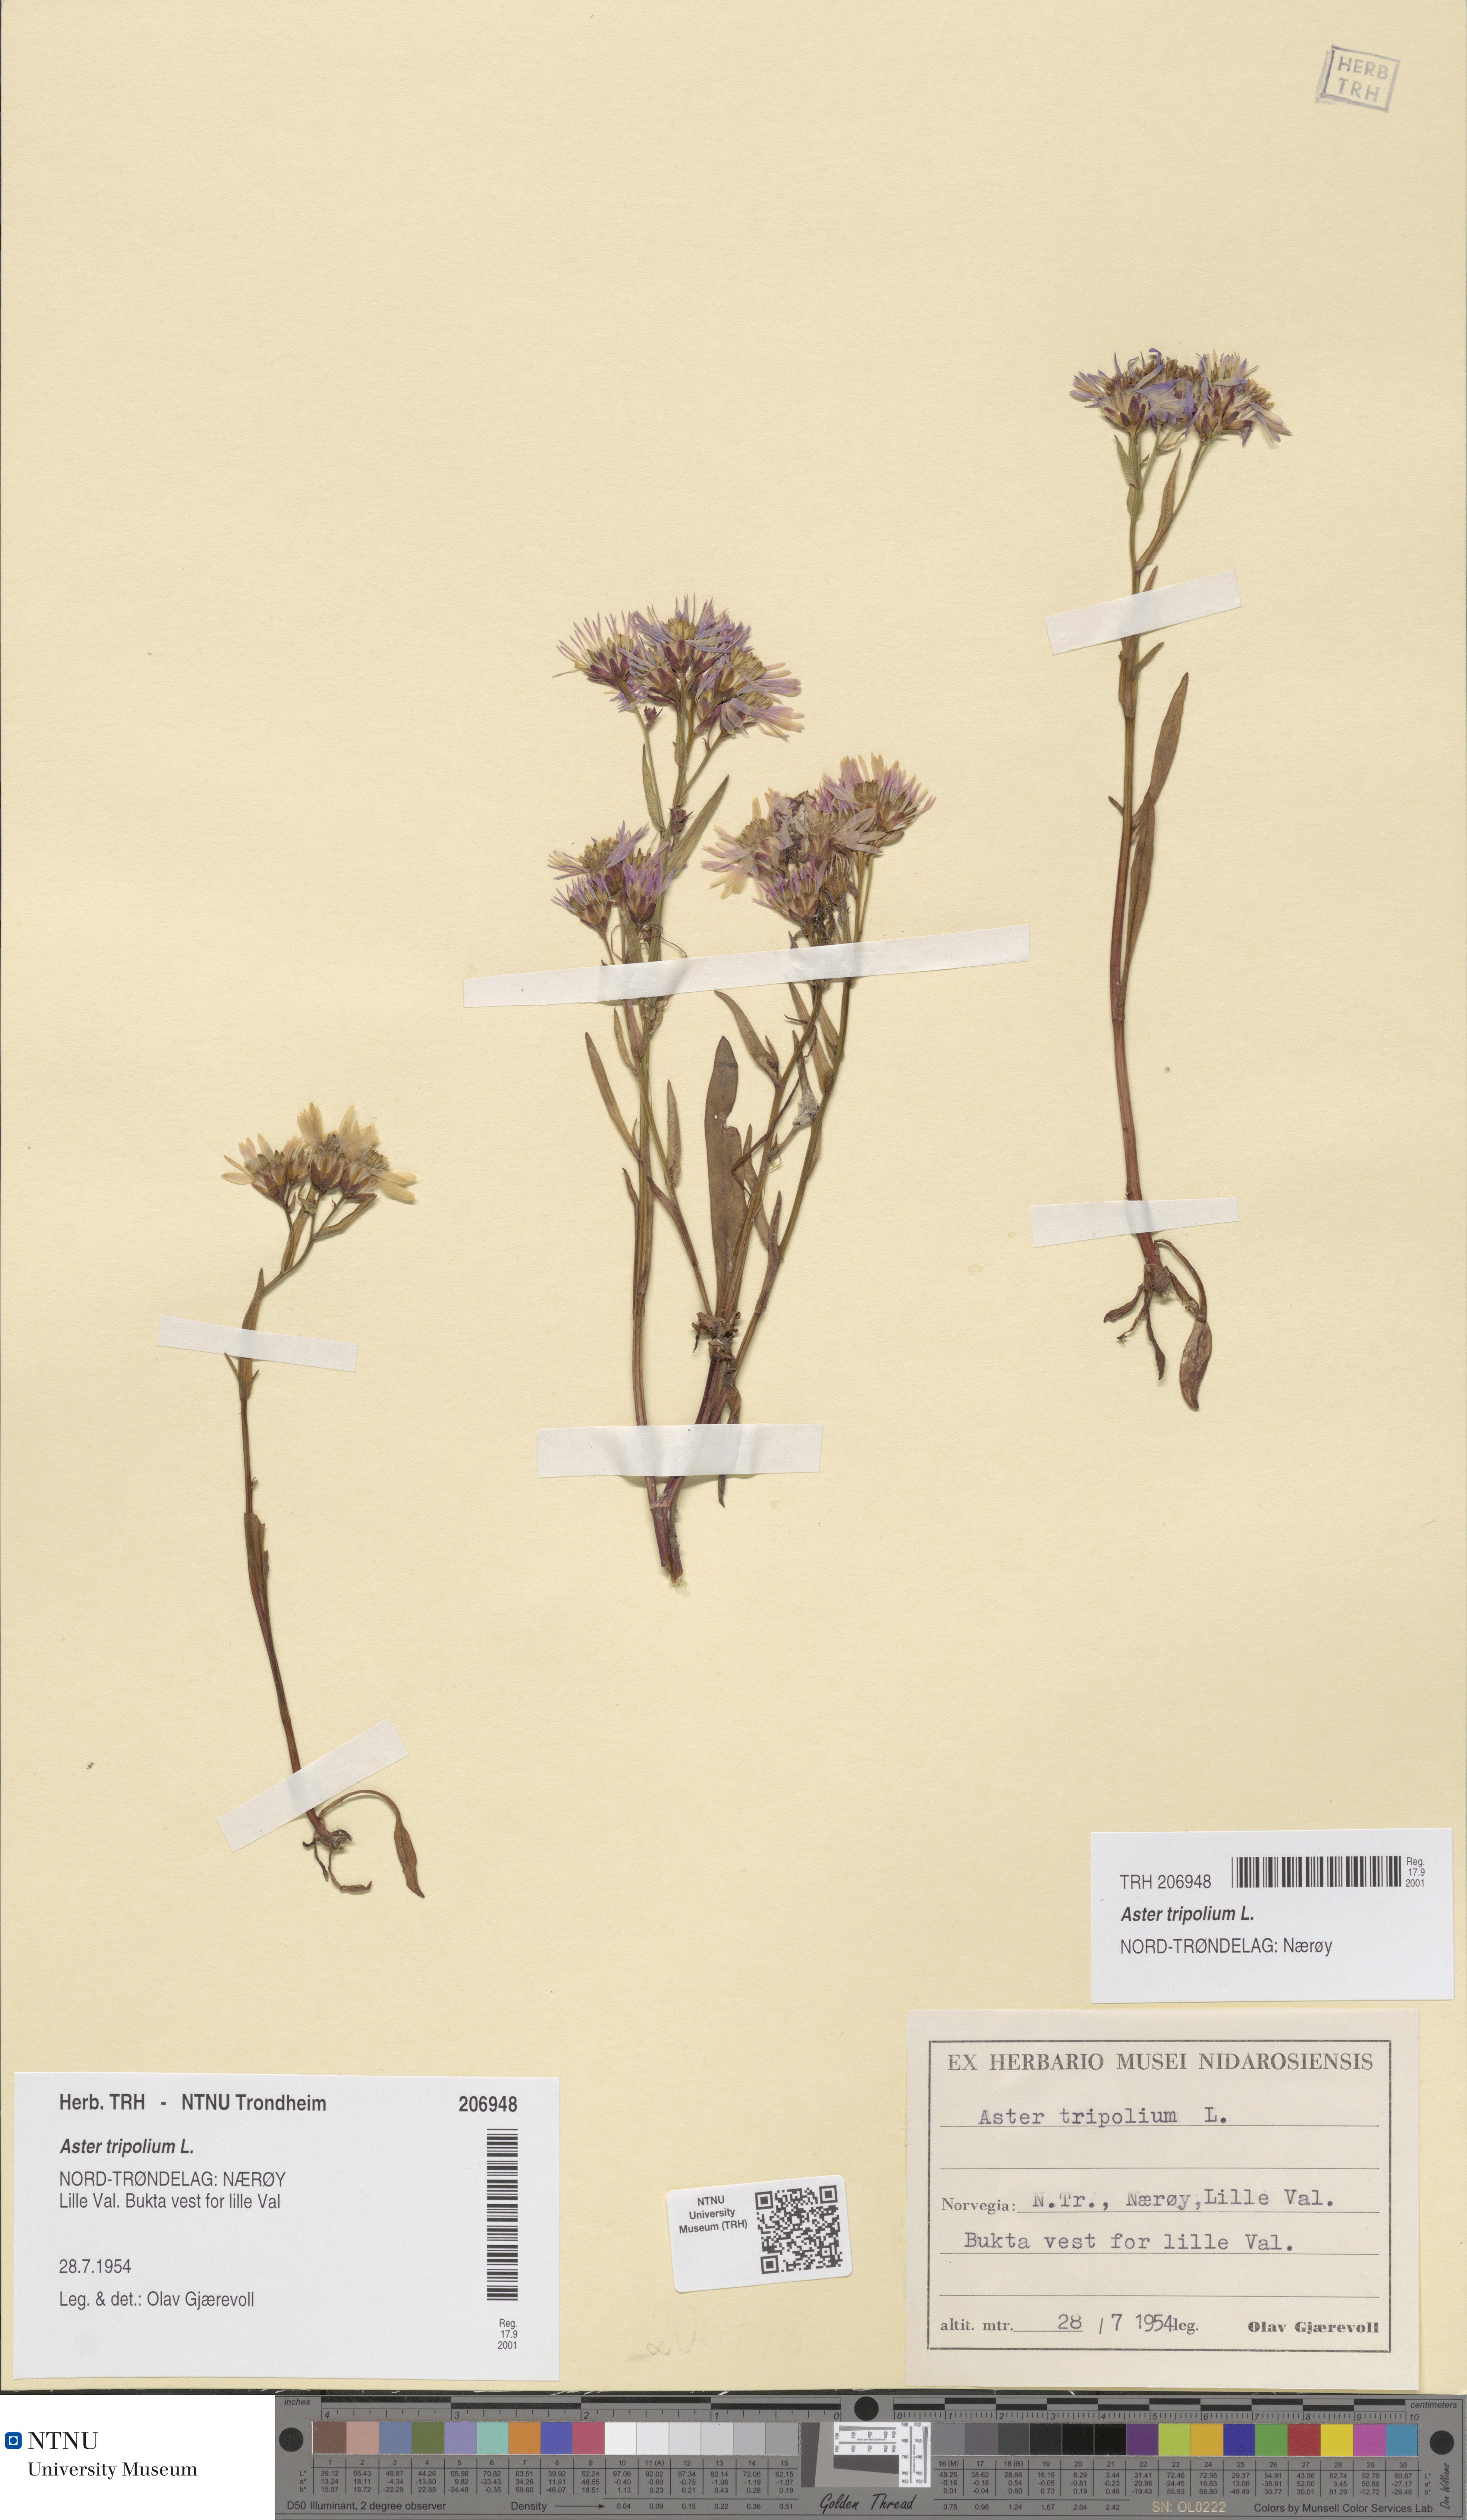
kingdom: Plantae
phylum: Tracheophyta
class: Magnoliopsida
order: Asterales
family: Asteraceae
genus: Tripolium
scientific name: Tripolium pannonicum
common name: Sea aster
